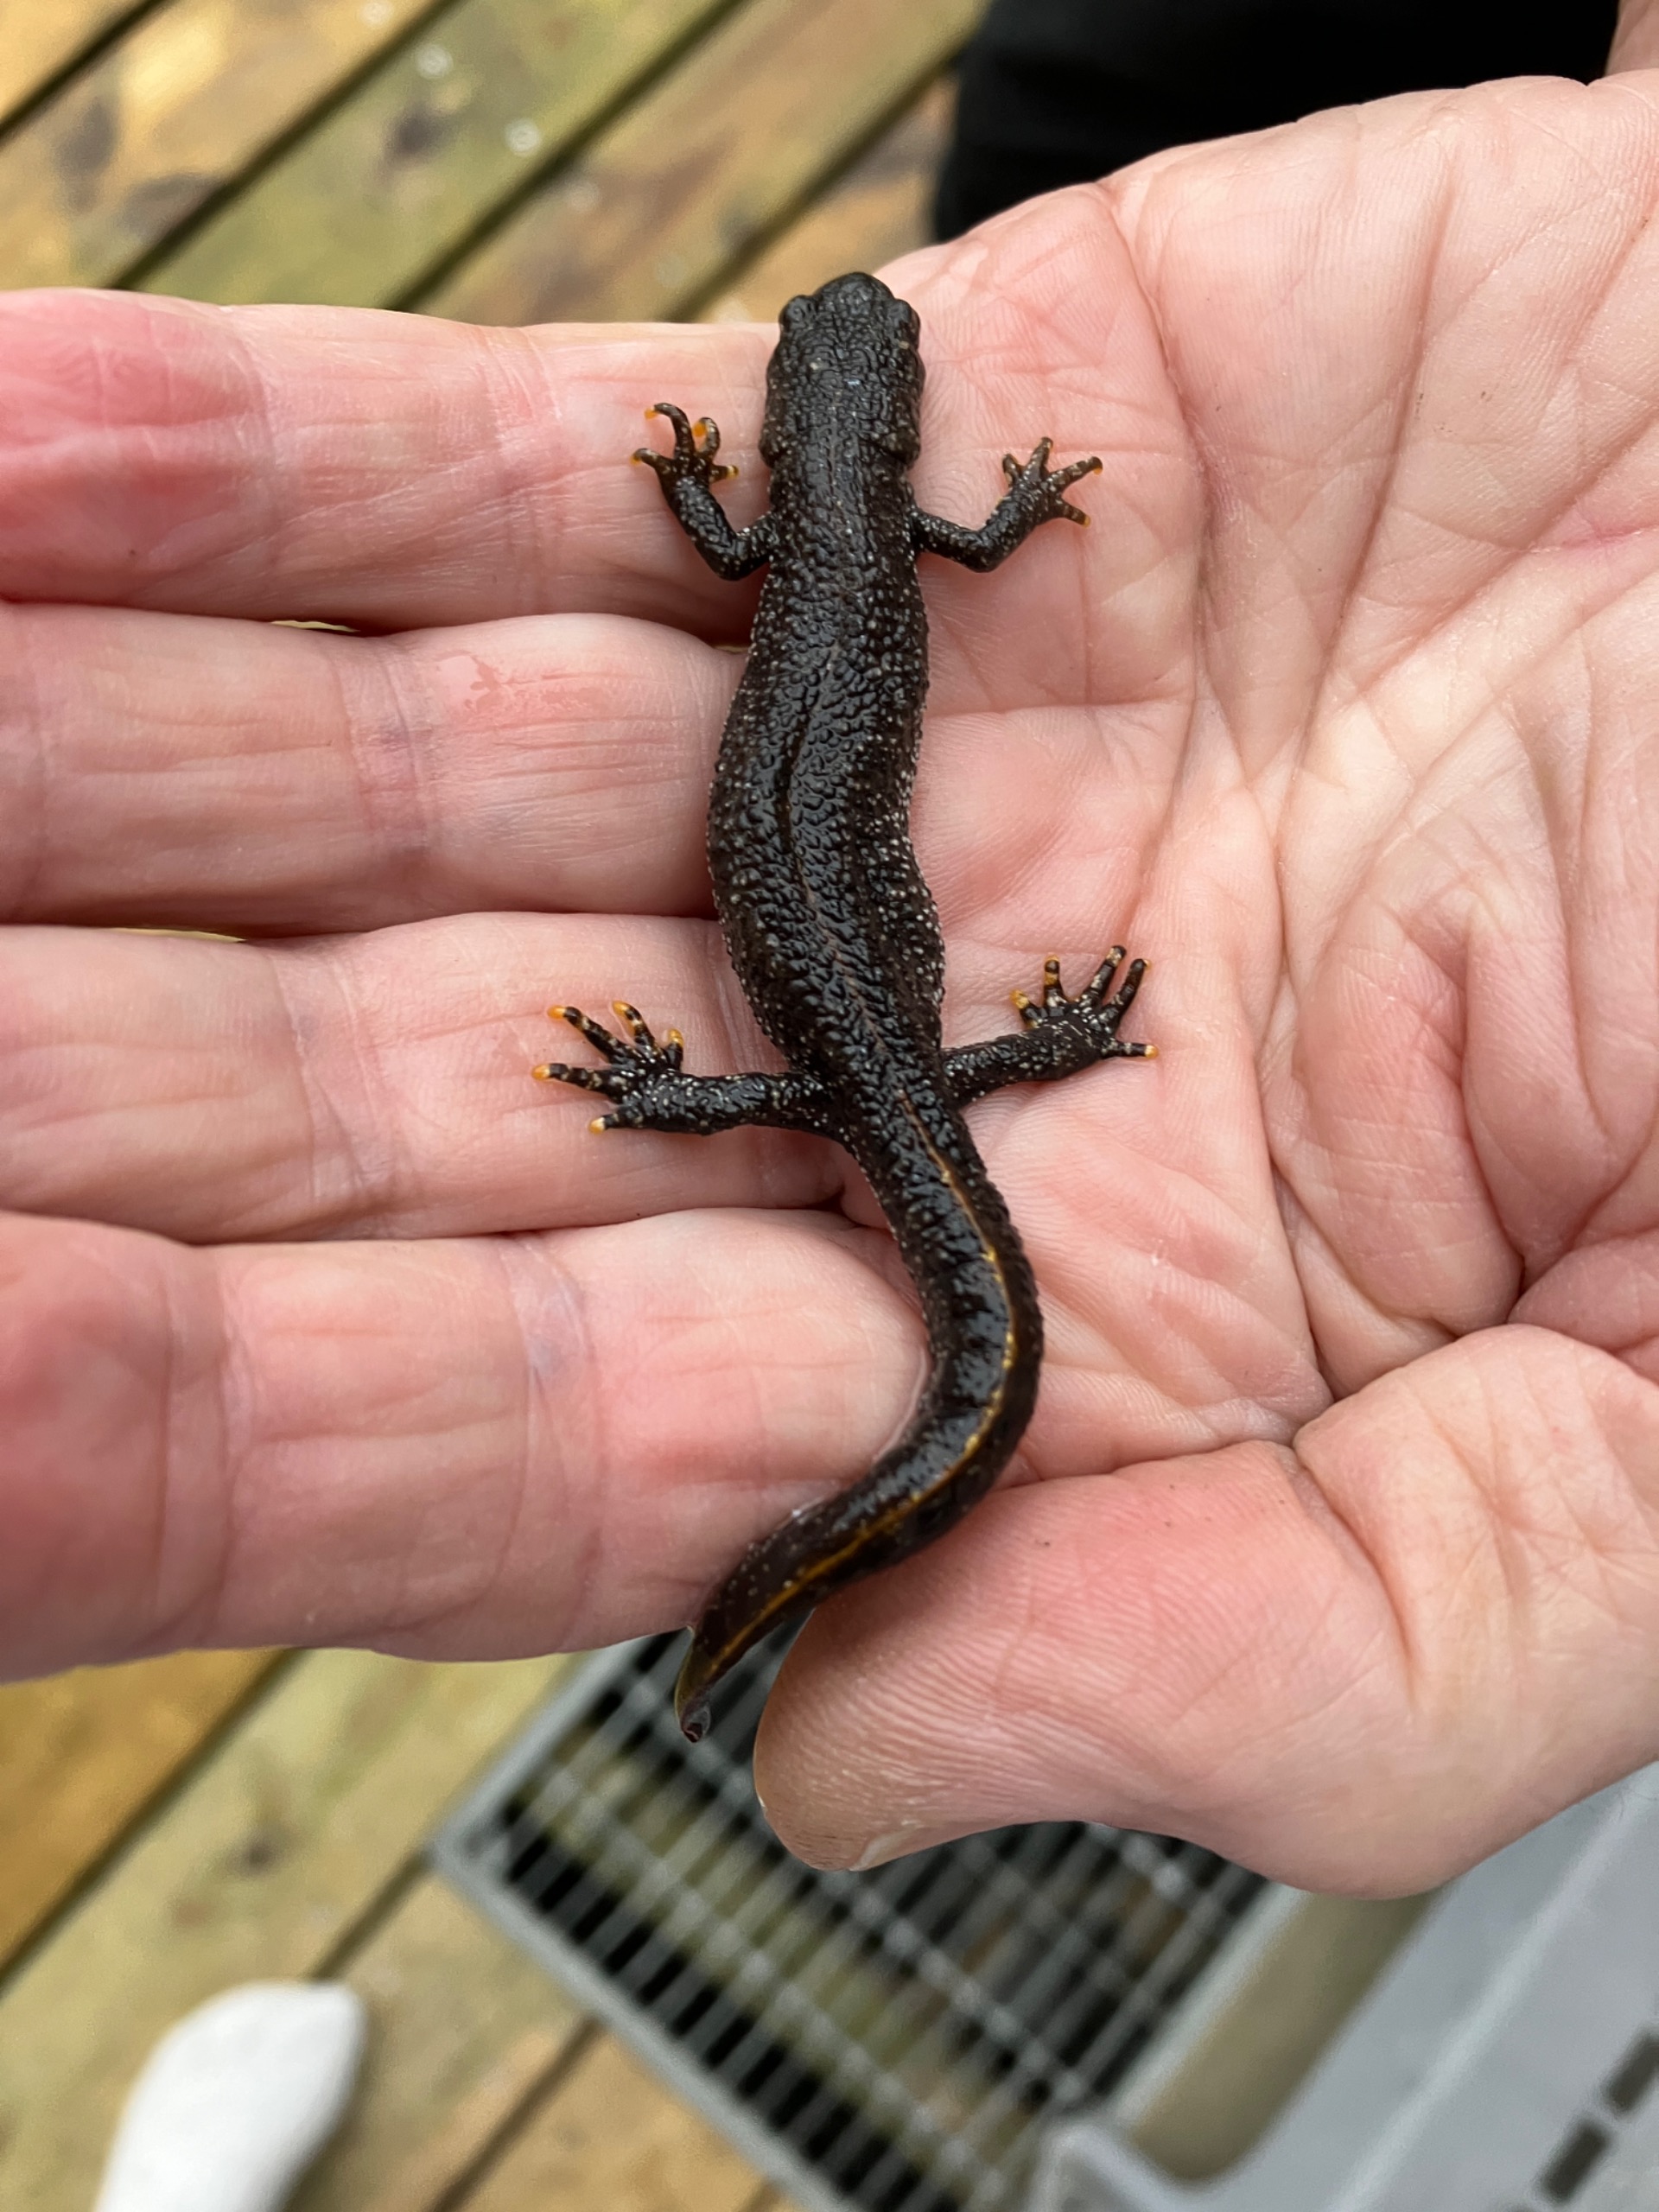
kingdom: Animalia
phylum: Chordata
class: Amphibia
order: Caudata
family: Salamandridae
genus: Triturus
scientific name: Triturus cristatus
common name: Stor vandsalamander
